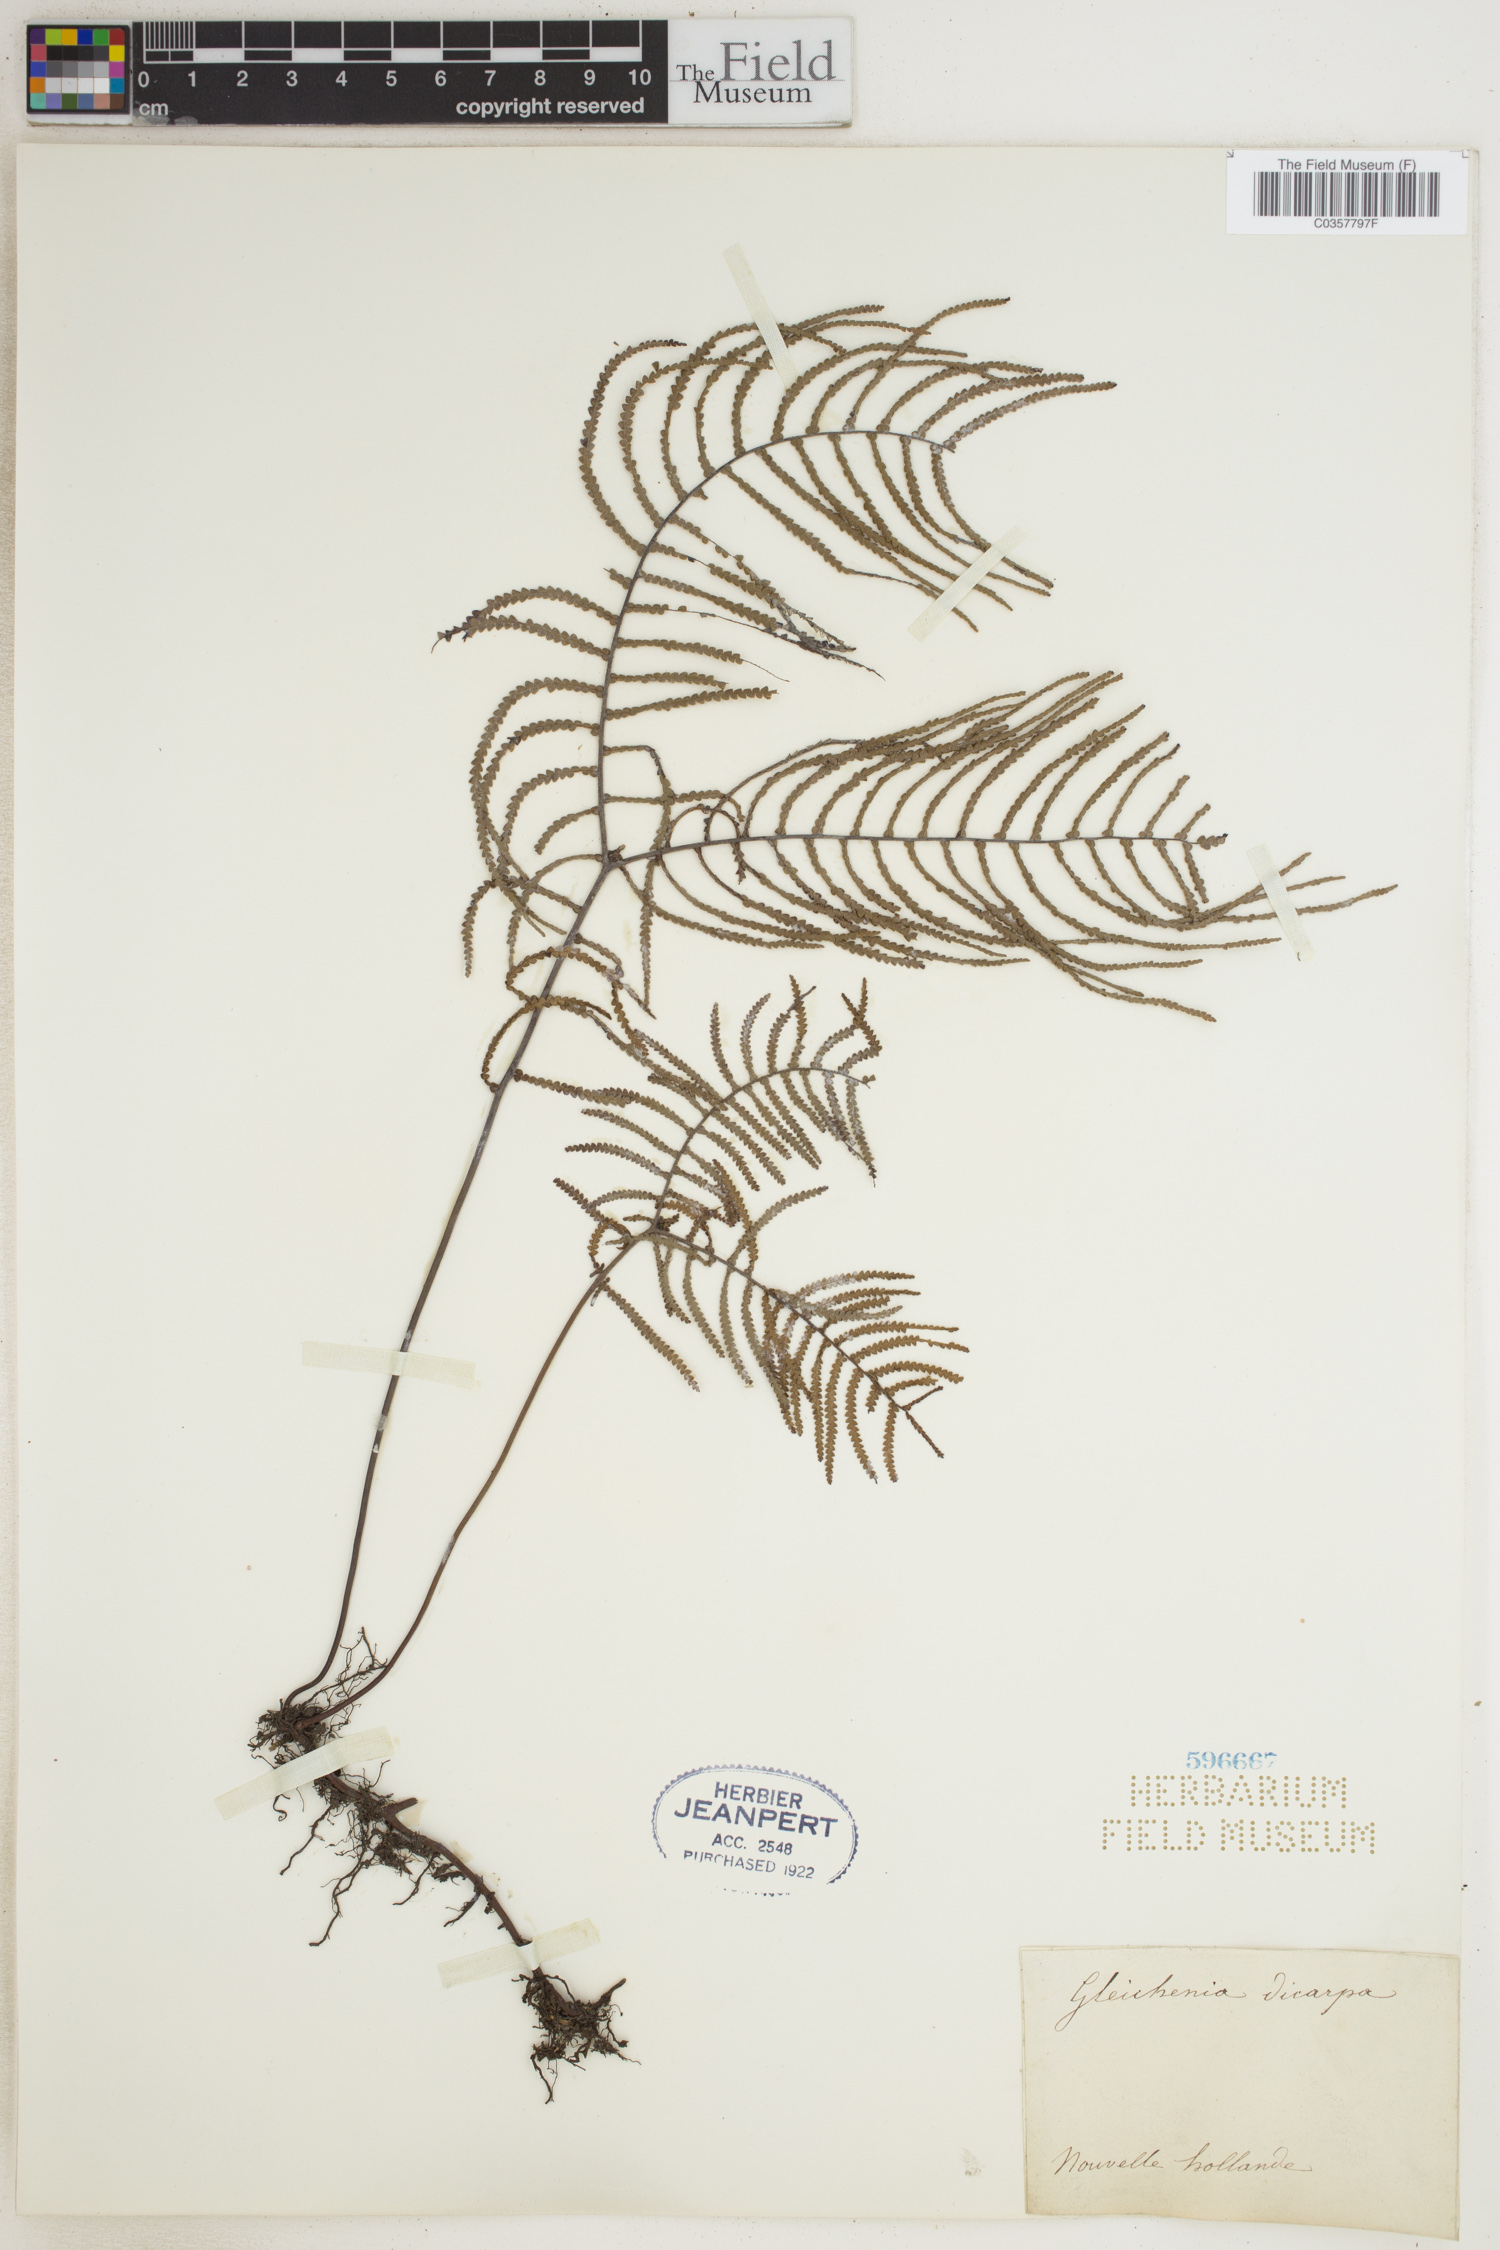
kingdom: Plantae
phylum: Tracheophyta
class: Polypodiopsida
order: Gleicheniales
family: Gleicheniaceae
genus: Gleichenia
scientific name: Gleichenia dicarpa
